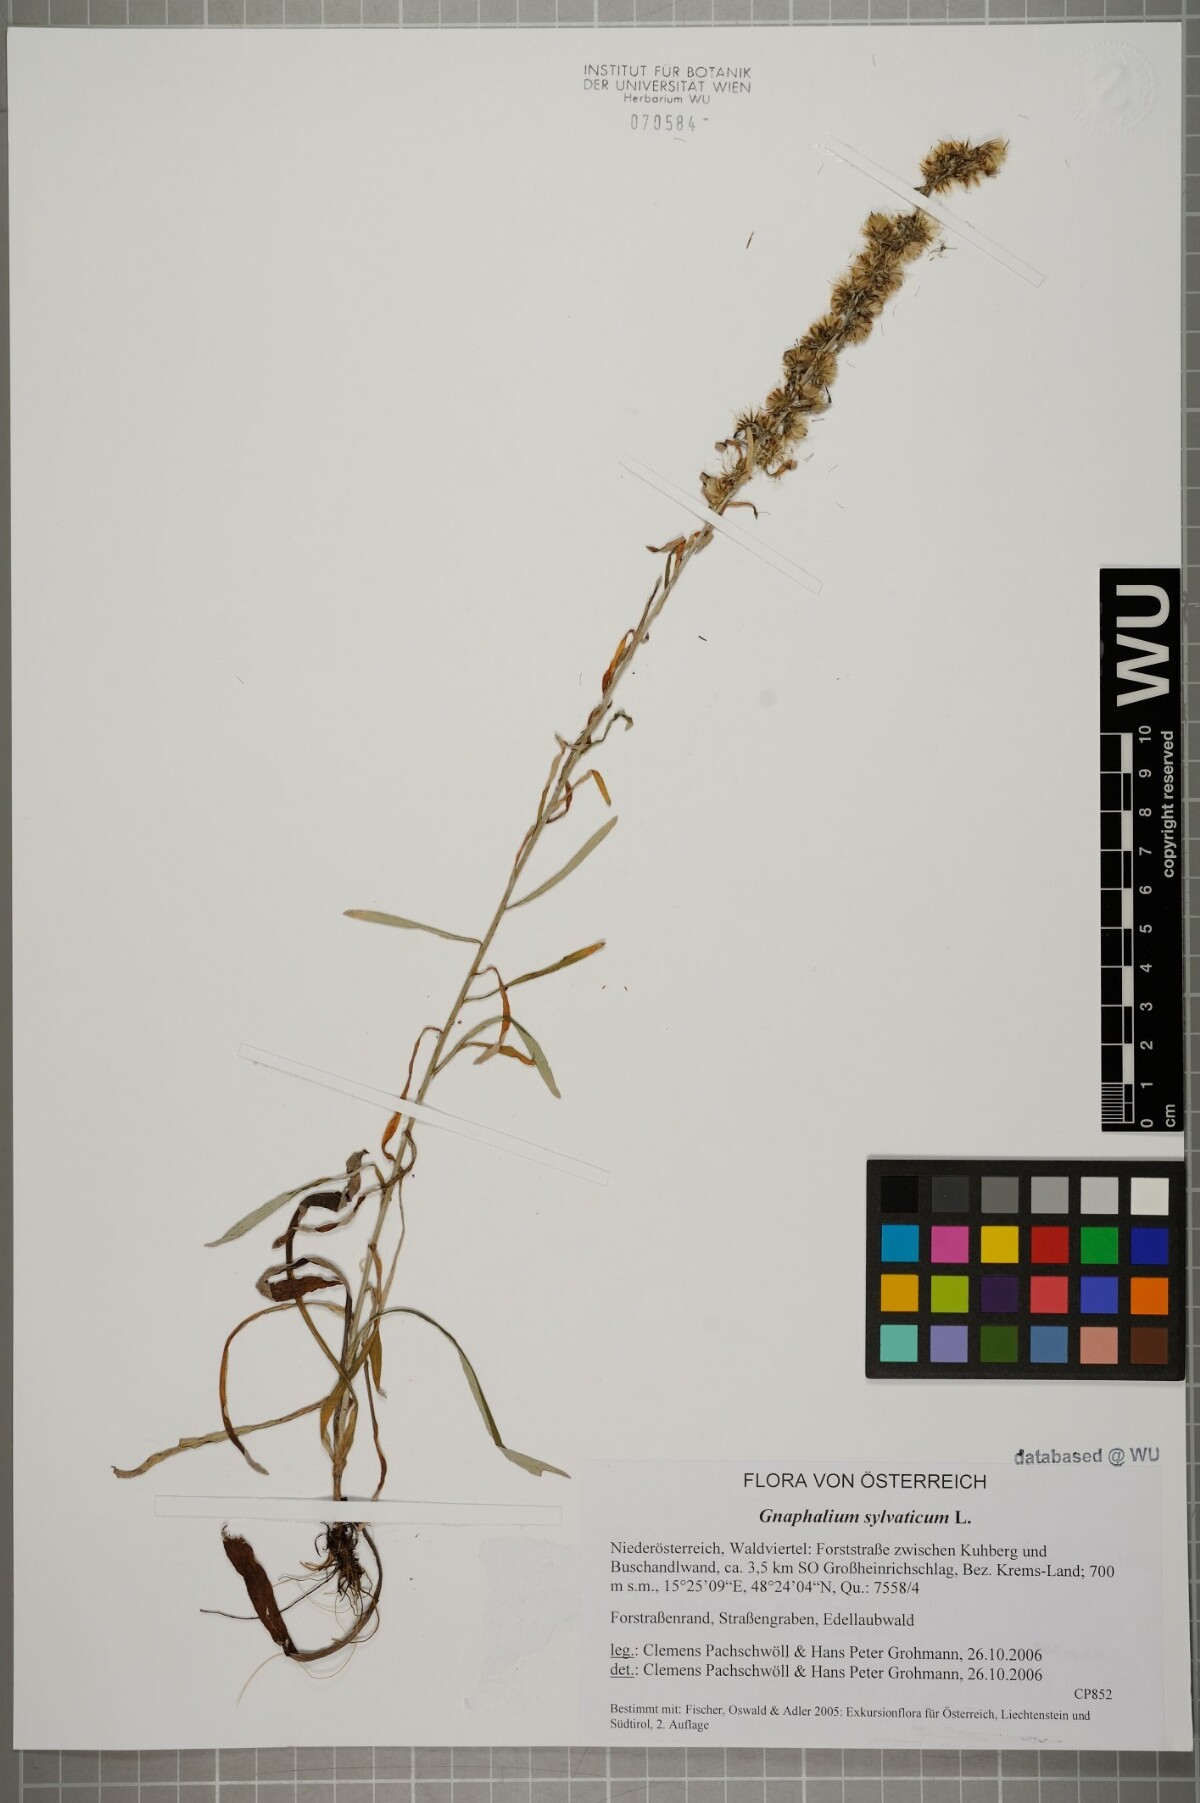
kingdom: Plantae
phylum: Tracheophyta
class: Magnoliopsida
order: Asterales
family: Asteraceae
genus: Omalotheca
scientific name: Omalotheca sylvatica
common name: Heath cudweed
